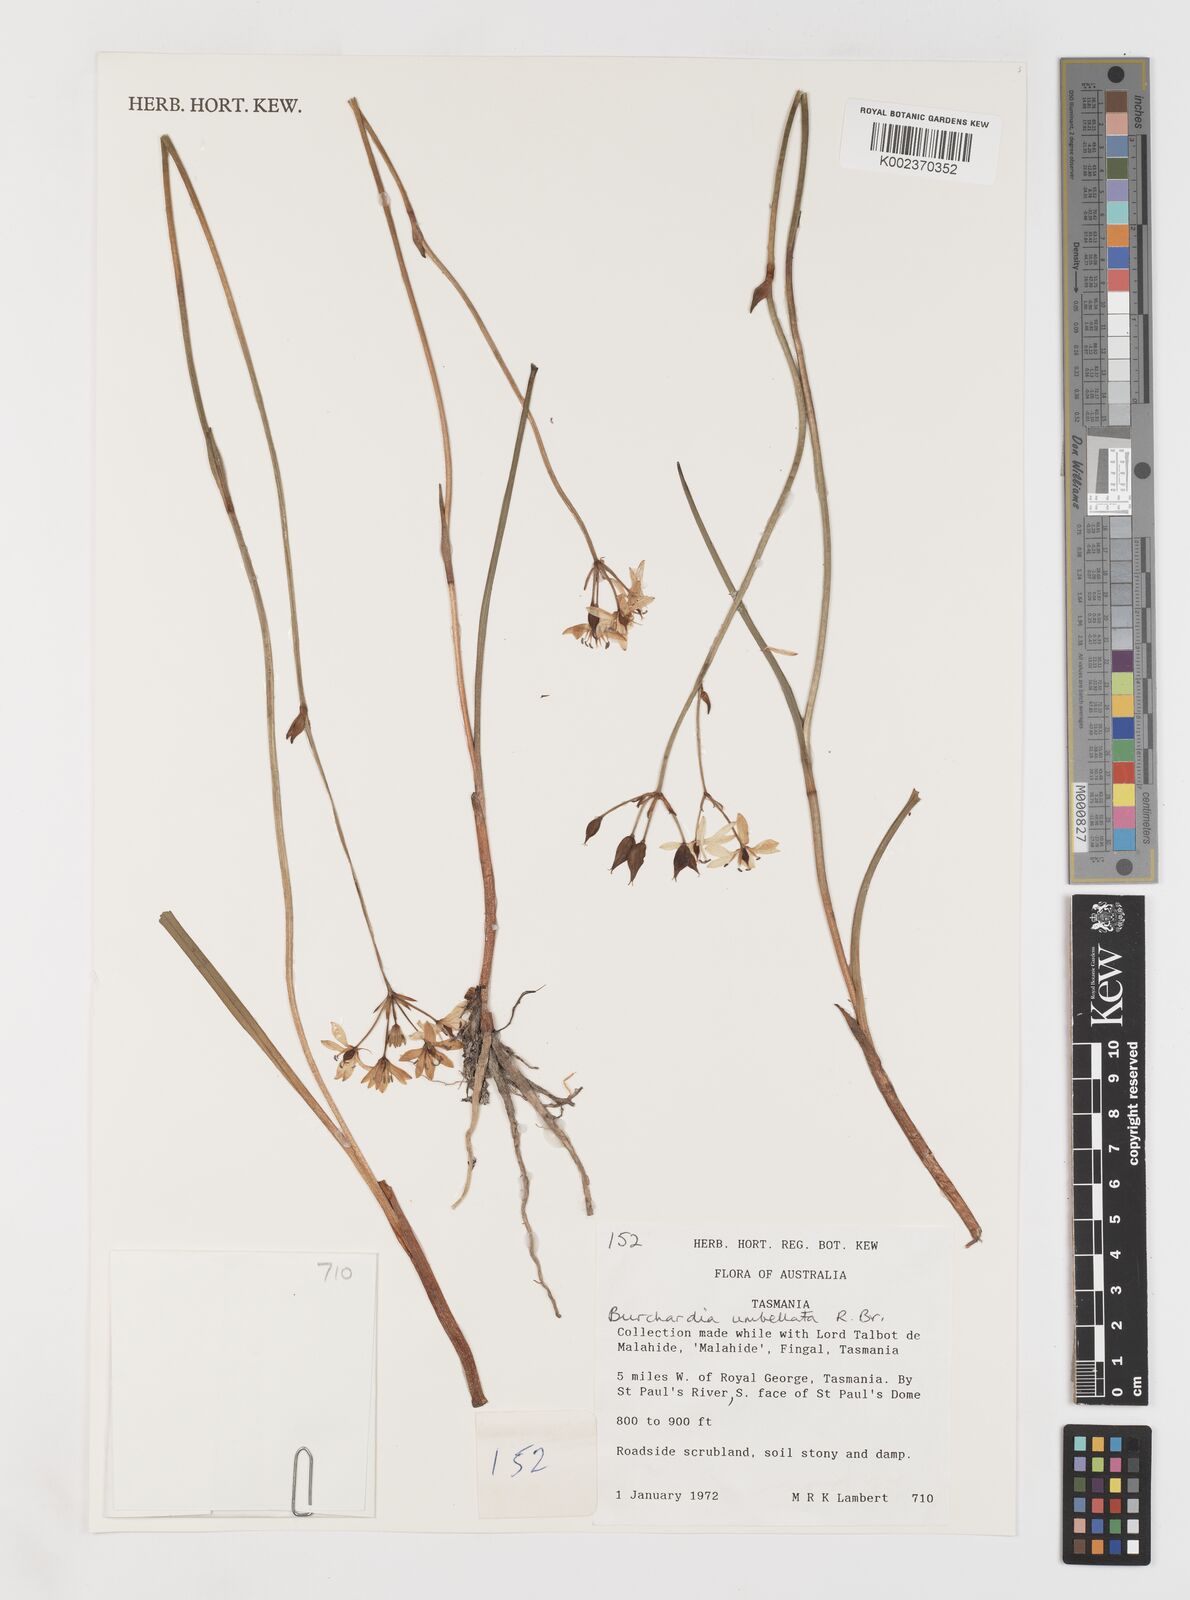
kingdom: Plantae
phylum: Tracheophyta
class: Liliopsida
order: Liliales
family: Colchicaceae
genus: Burchardia
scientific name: Burchardia umbellata
